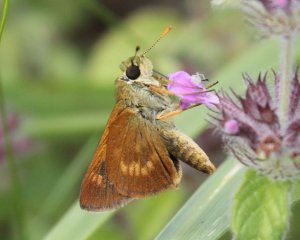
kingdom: Animalia
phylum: Arthropoda
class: Insecta
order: Lepidoptera
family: Hesperiidae
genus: Wallengrenia
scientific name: Wallengrenia otho
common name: Southern Broken-Dash
